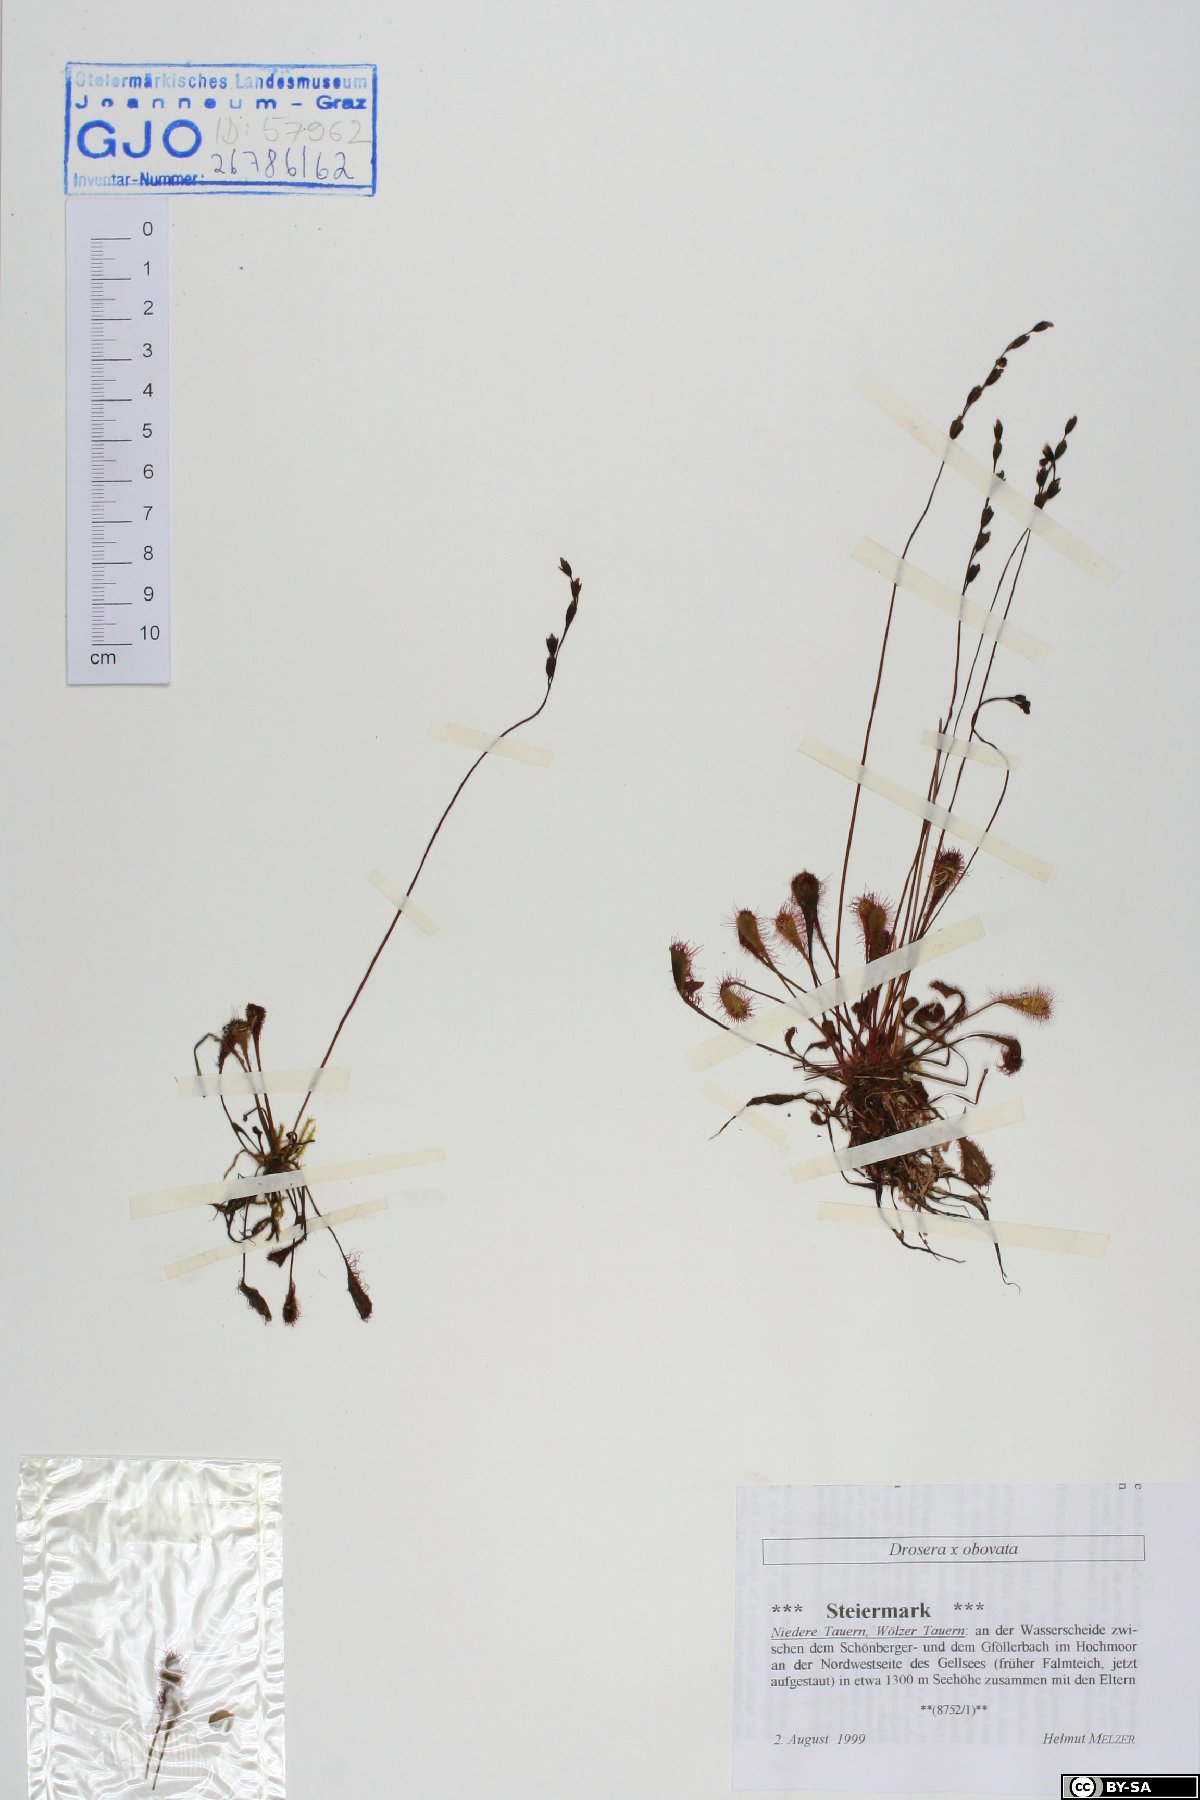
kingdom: Plantae
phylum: Tracheophyta
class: Magnoliopsida
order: Caryophyllales
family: Droseraceae
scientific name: Droseraceae
